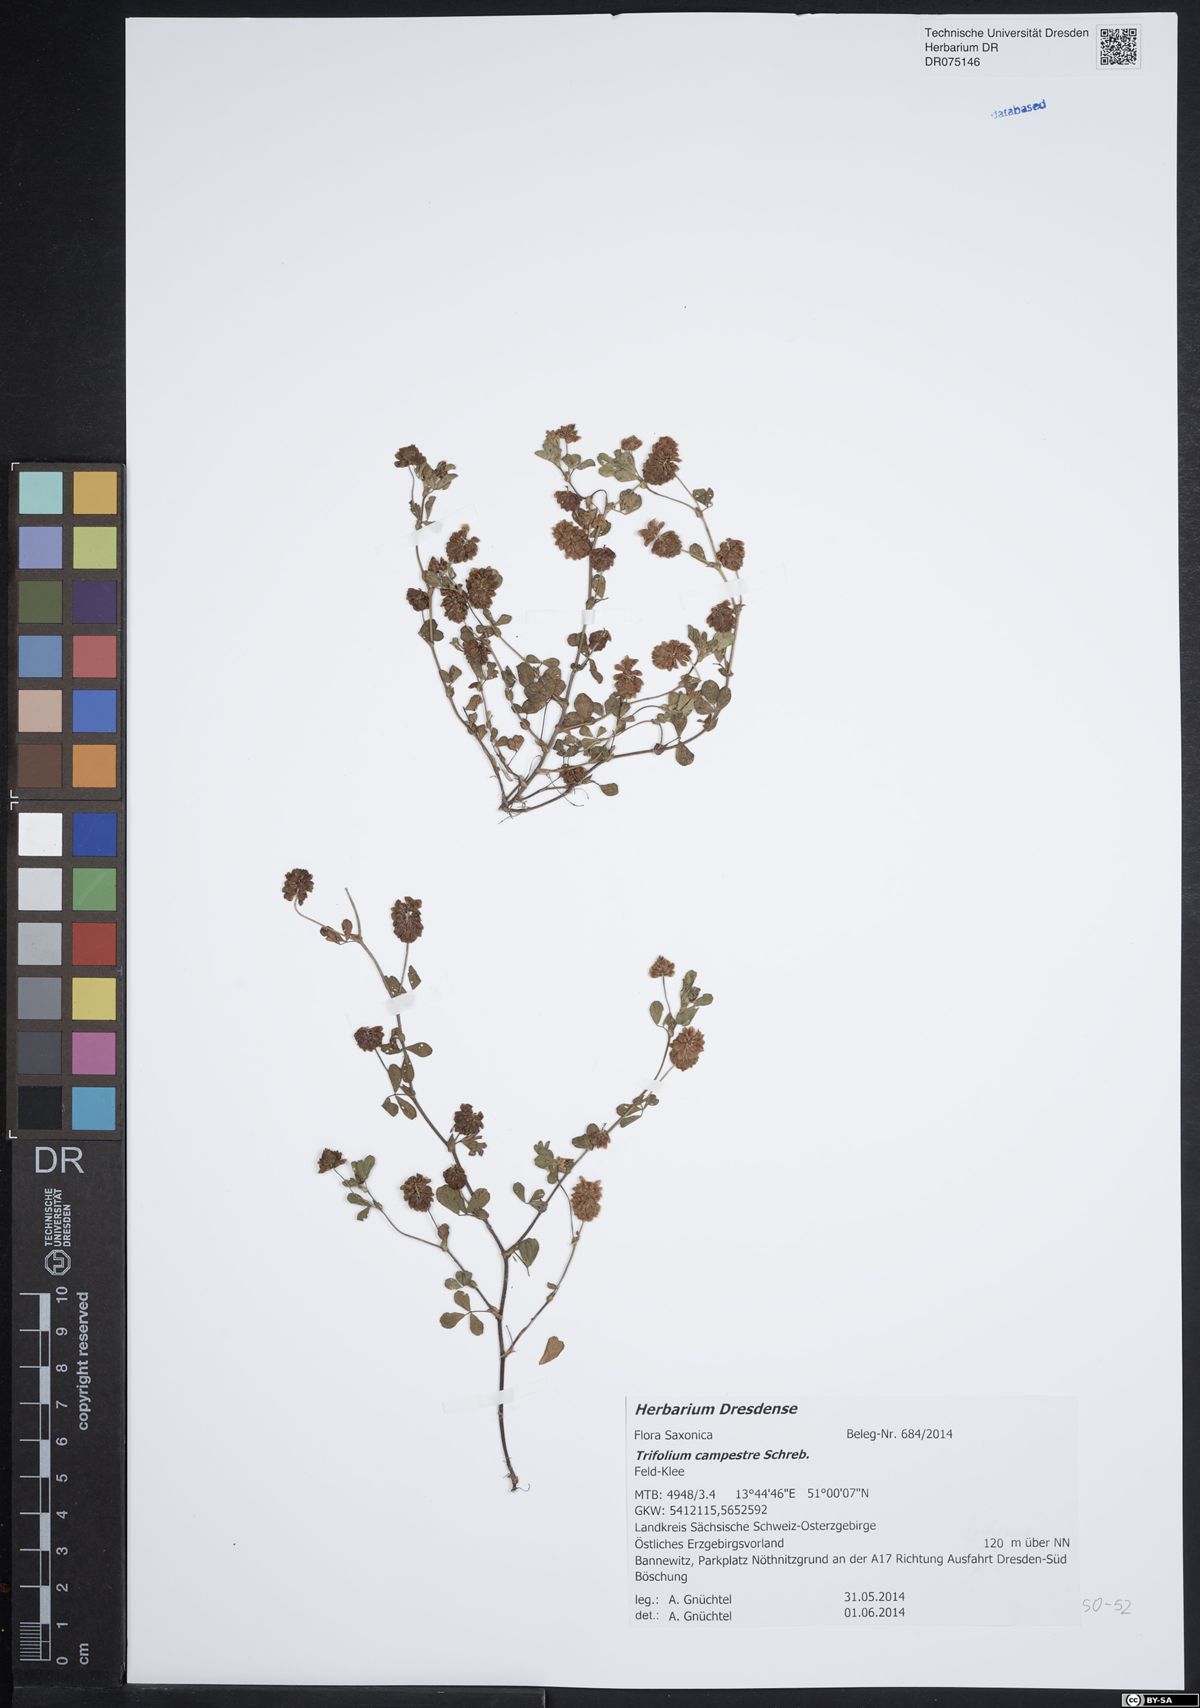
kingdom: Plantae
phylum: Tracheophyta
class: Magnoliopsida
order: Fabales
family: Fabaceae
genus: Trifolium
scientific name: Trifolium campestre
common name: Field clover
